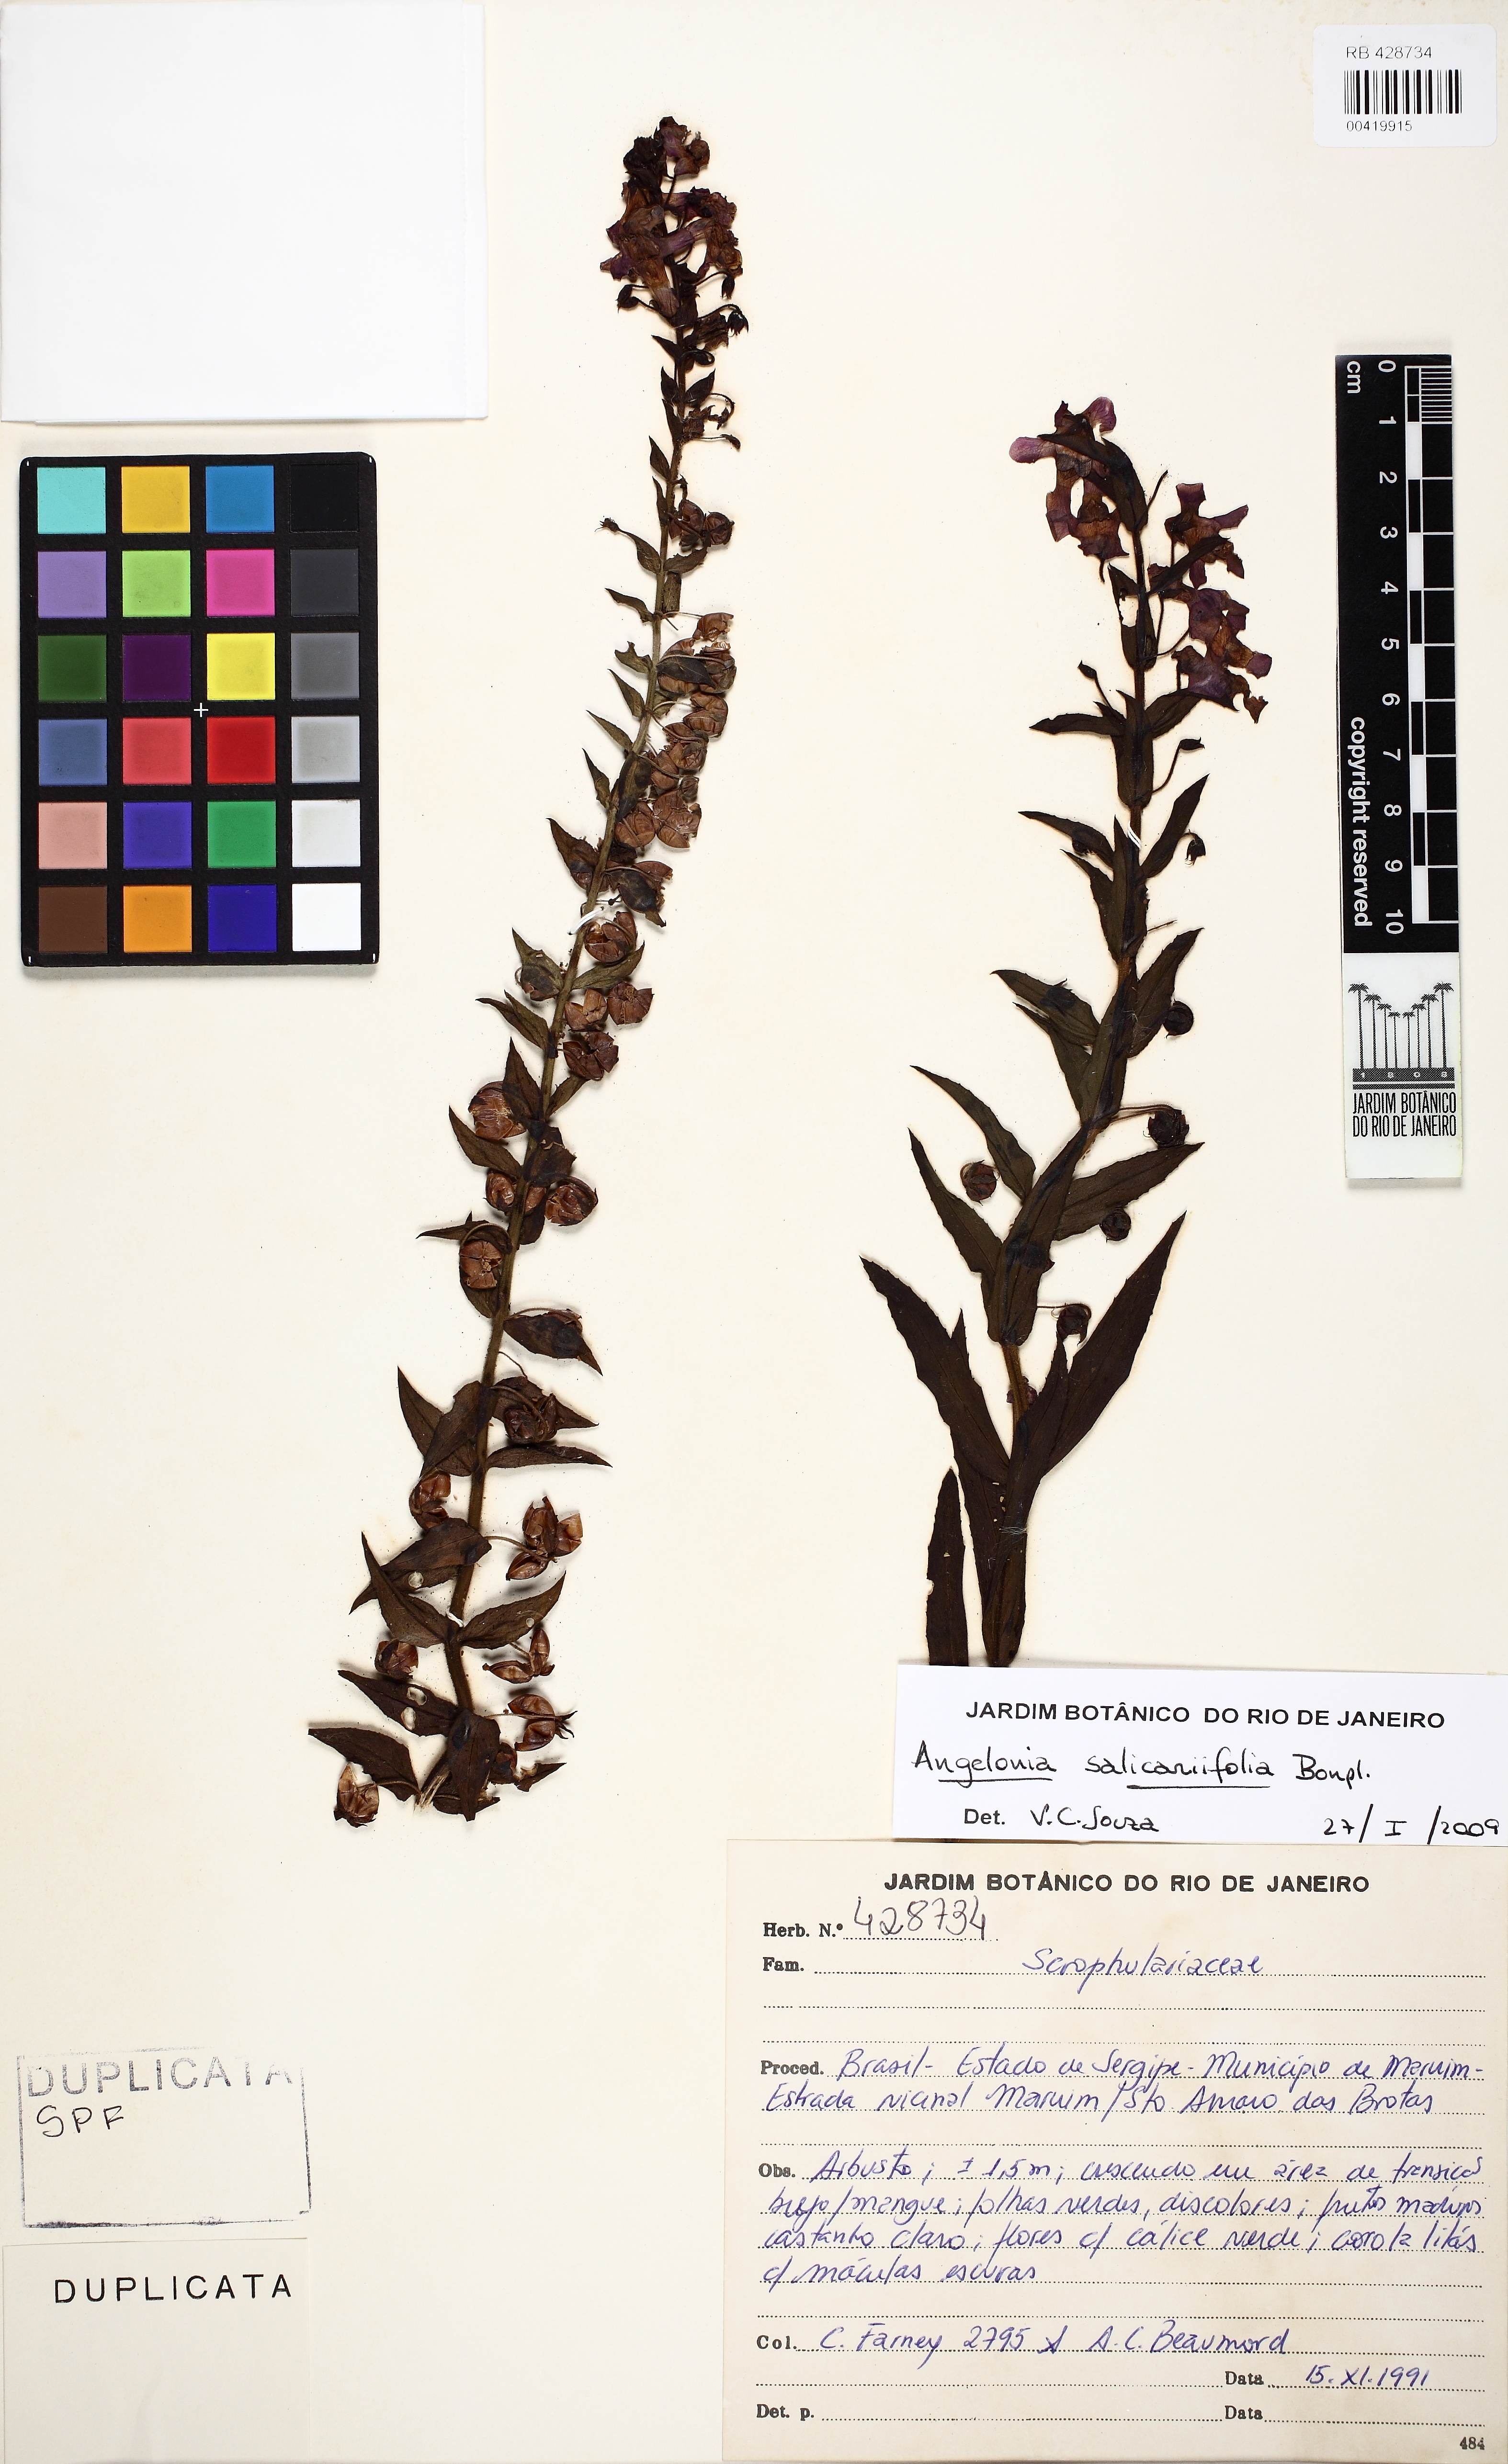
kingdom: Plantae
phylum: Tracheophyta
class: Magnoliopsida
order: Lamiales
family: Plantaginaceae
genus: Angelonia
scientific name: Angelonia salicariifolia
